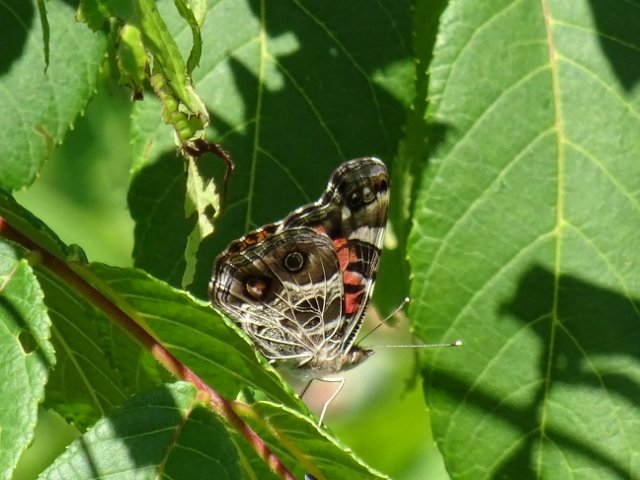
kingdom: Animalia
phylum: Arthropoda
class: Insecta
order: Lepidoptera
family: Nymphalidae
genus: Vanessa
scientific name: Vanessa virginiensis
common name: American Lady
